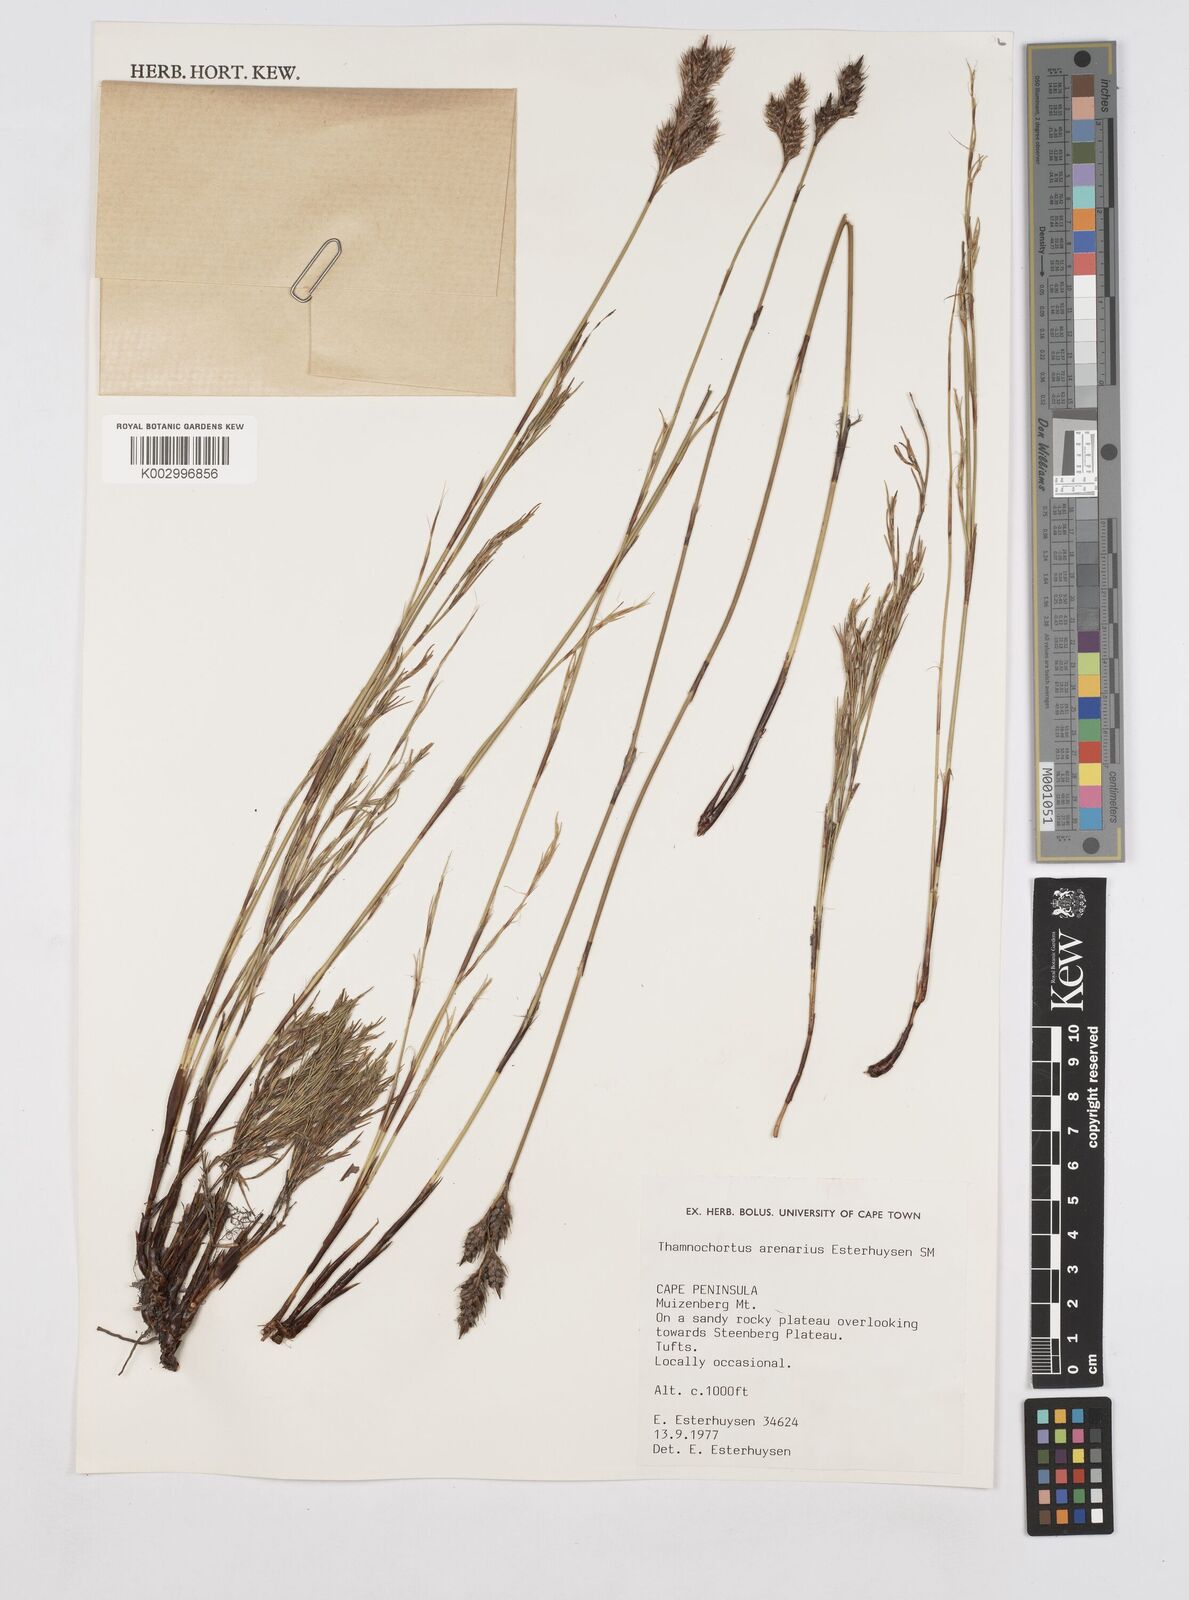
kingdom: Plantae
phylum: Tracheophyta
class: Liliopsida
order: Poales
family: Restionaceae
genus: Thamnochortus
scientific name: Thamnochortus arenarius
